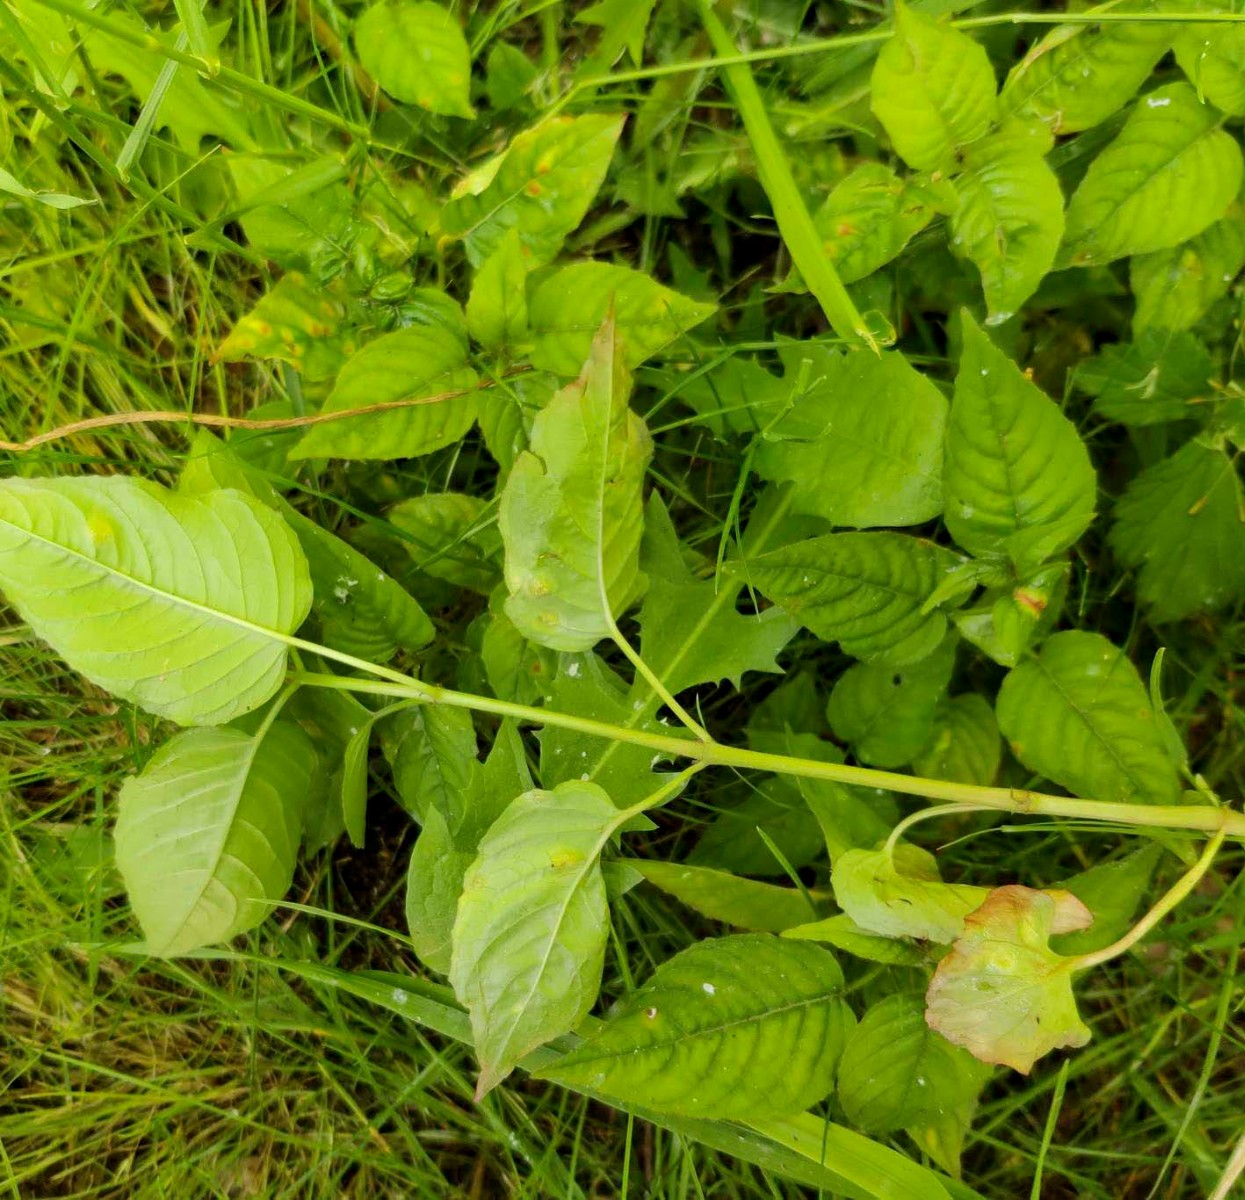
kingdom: Fungi
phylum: Basidiomycota
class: Pucciniomycetes
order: Pucciniales
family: Pucciniastraceae
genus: Pucciniastrum
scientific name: Pucciniastrum circaeae
